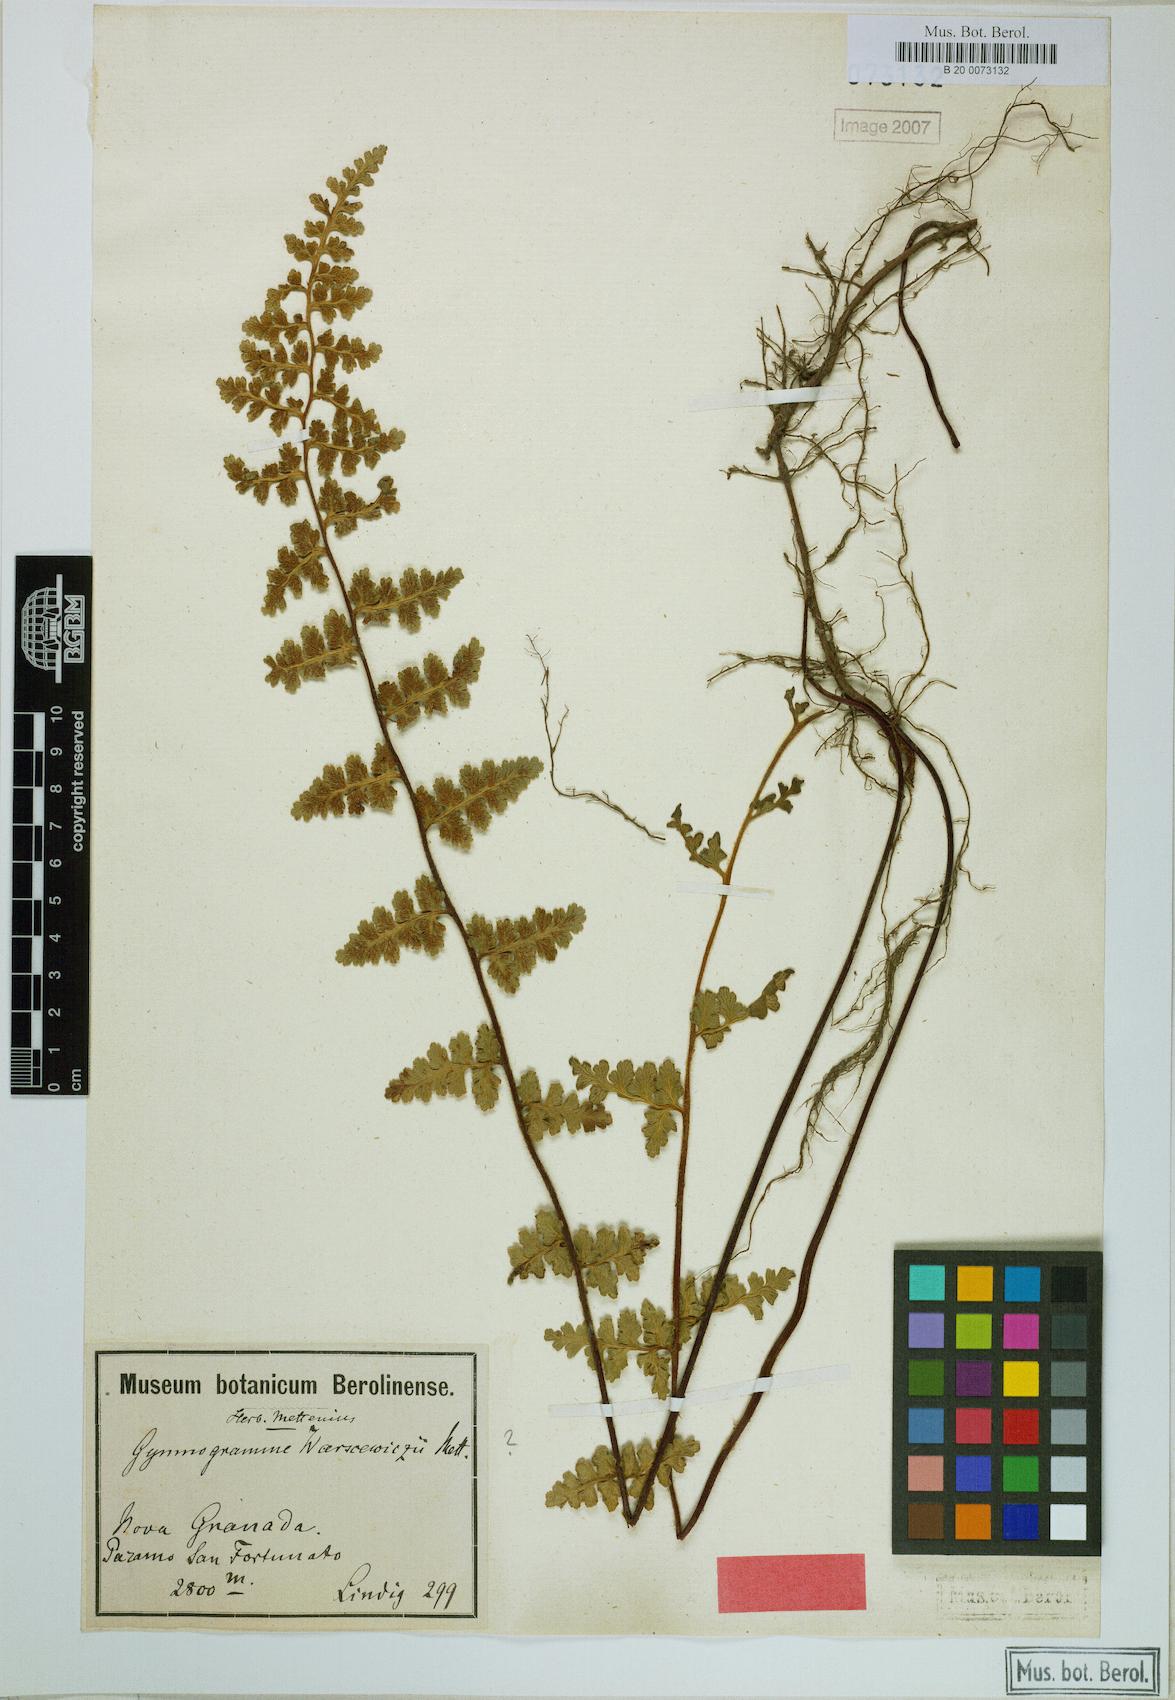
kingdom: Plantae
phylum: Tracheophyta
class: Polypodiopsida
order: Polypodiales
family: Pteridaceae
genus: Jamesonia
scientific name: Jamesonia warscewiczii
